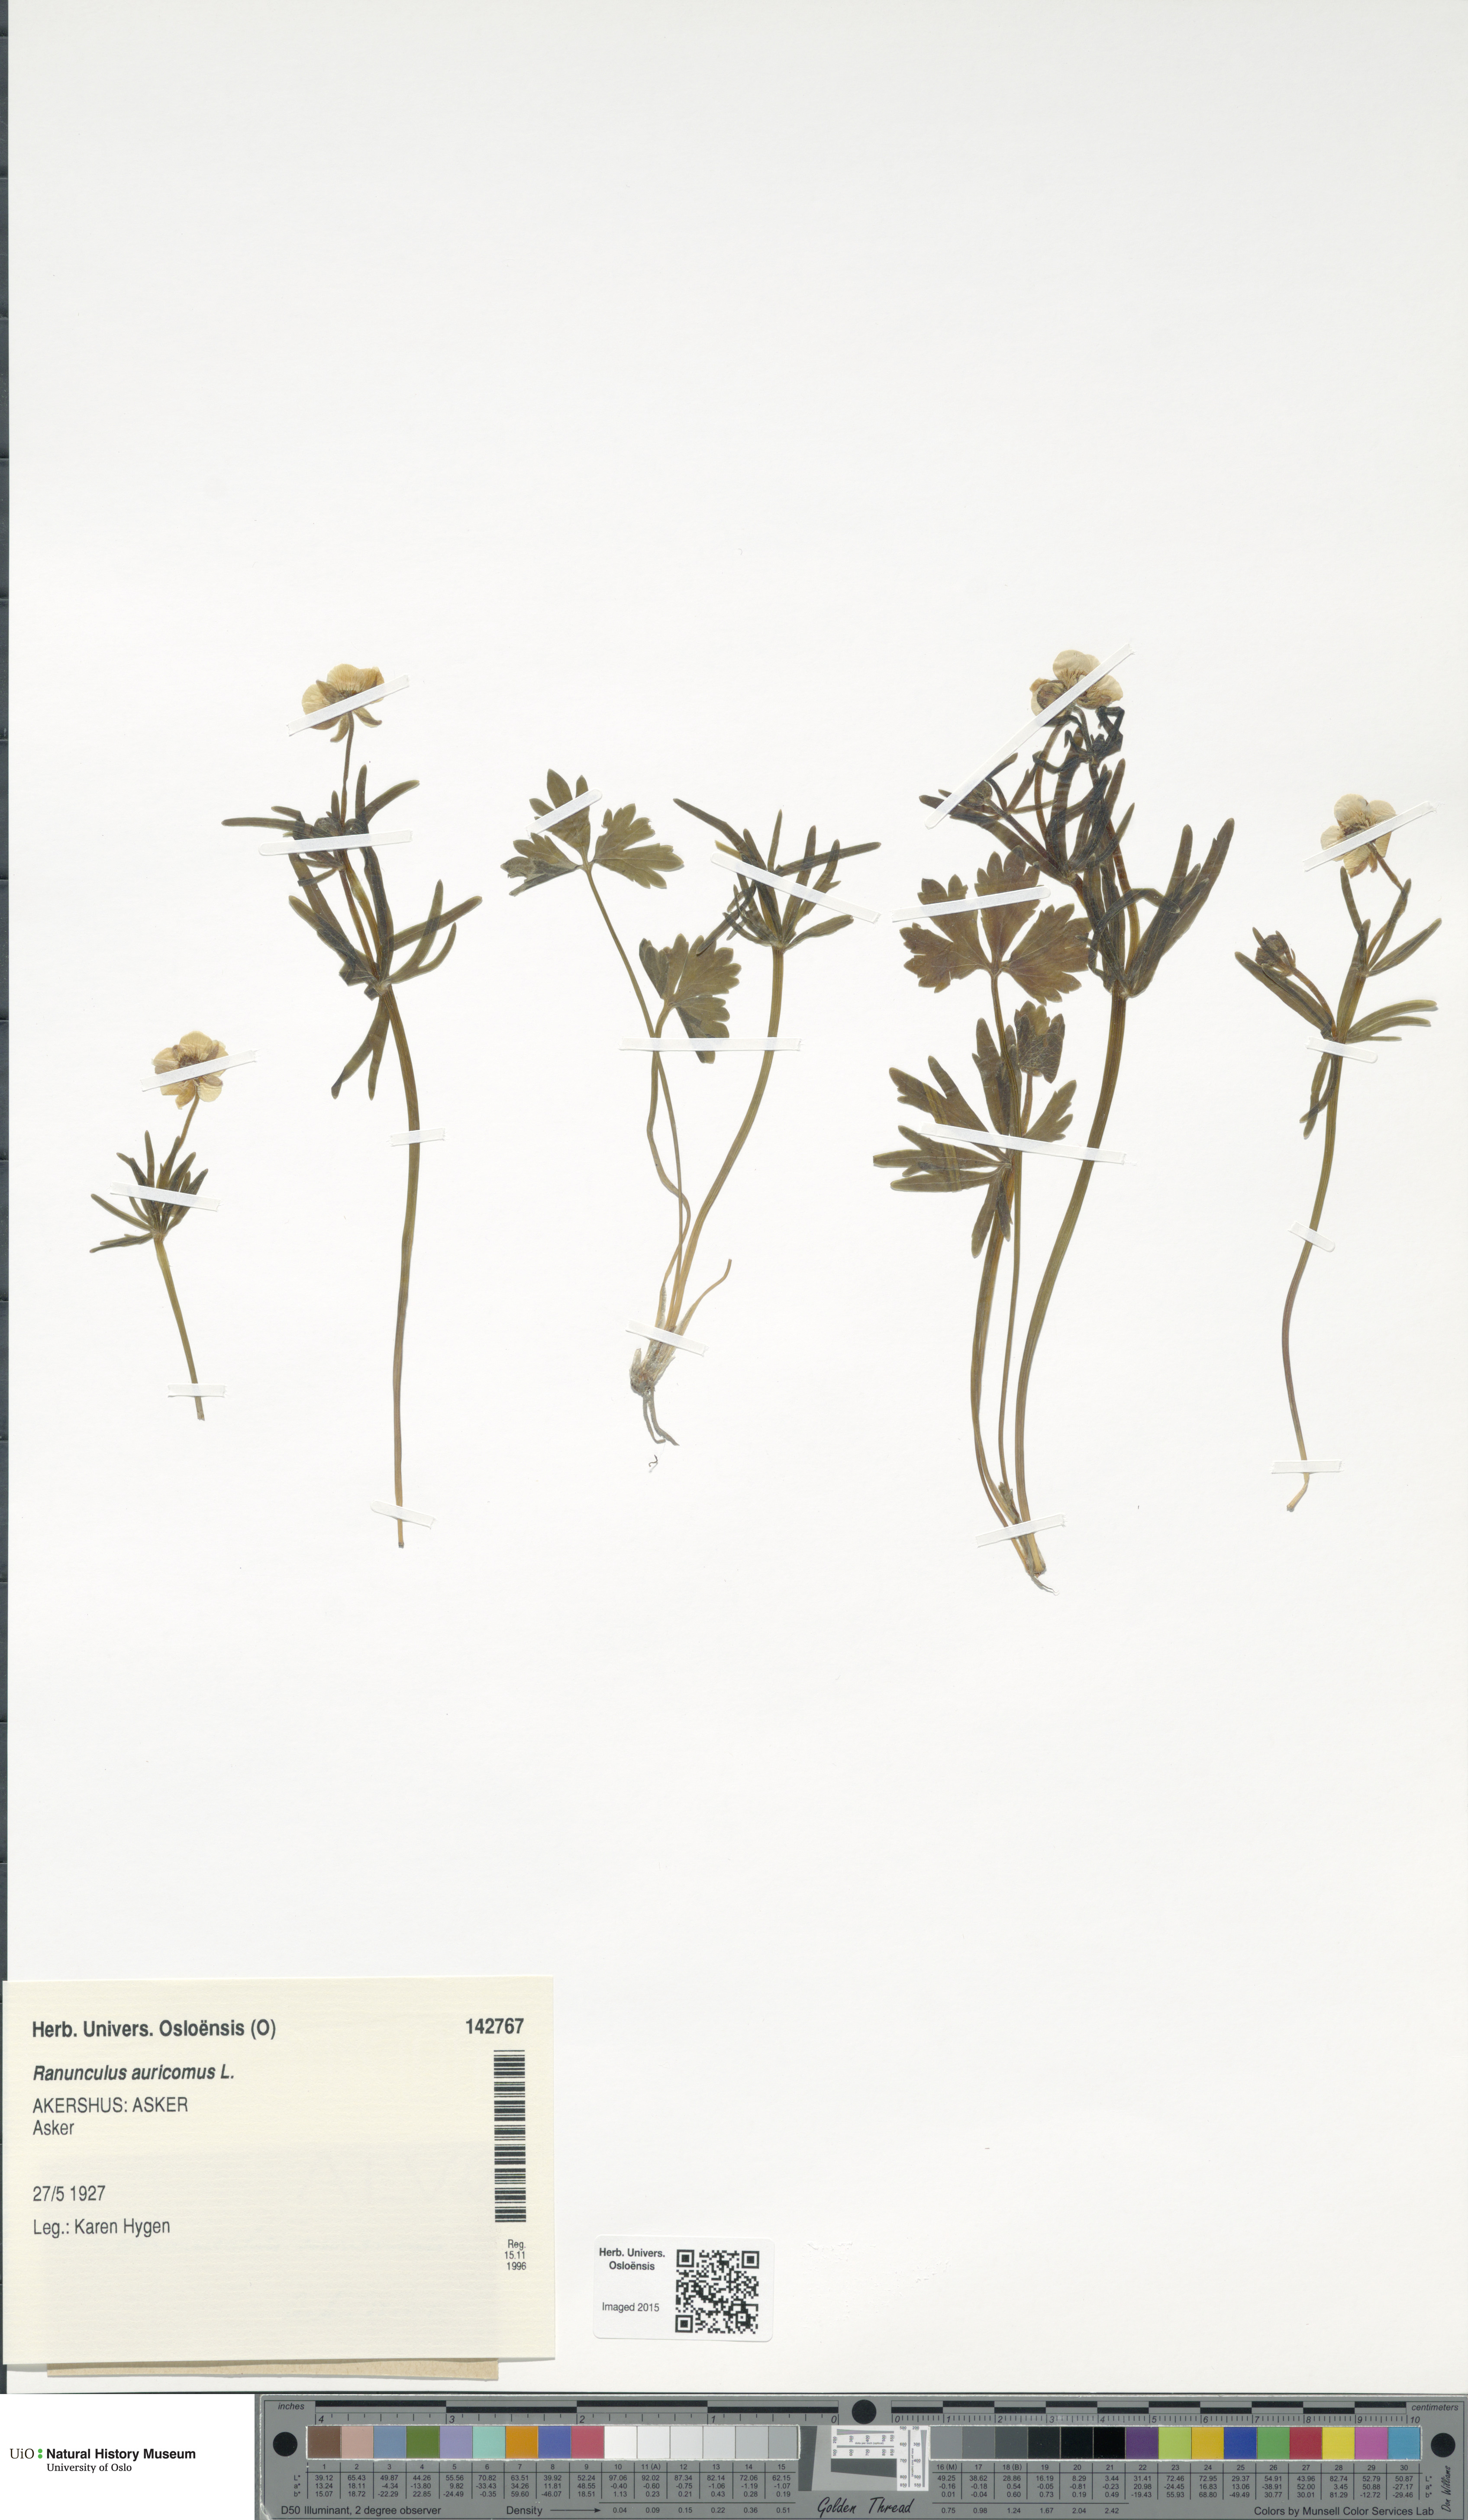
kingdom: Plantae
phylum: Tracheophyta
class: Magnoliopsida
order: Ranunculales
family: Ranunculaceae
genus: Ranunculus
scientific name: Ranunculus auricomus
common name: Goldilocks buttercup
